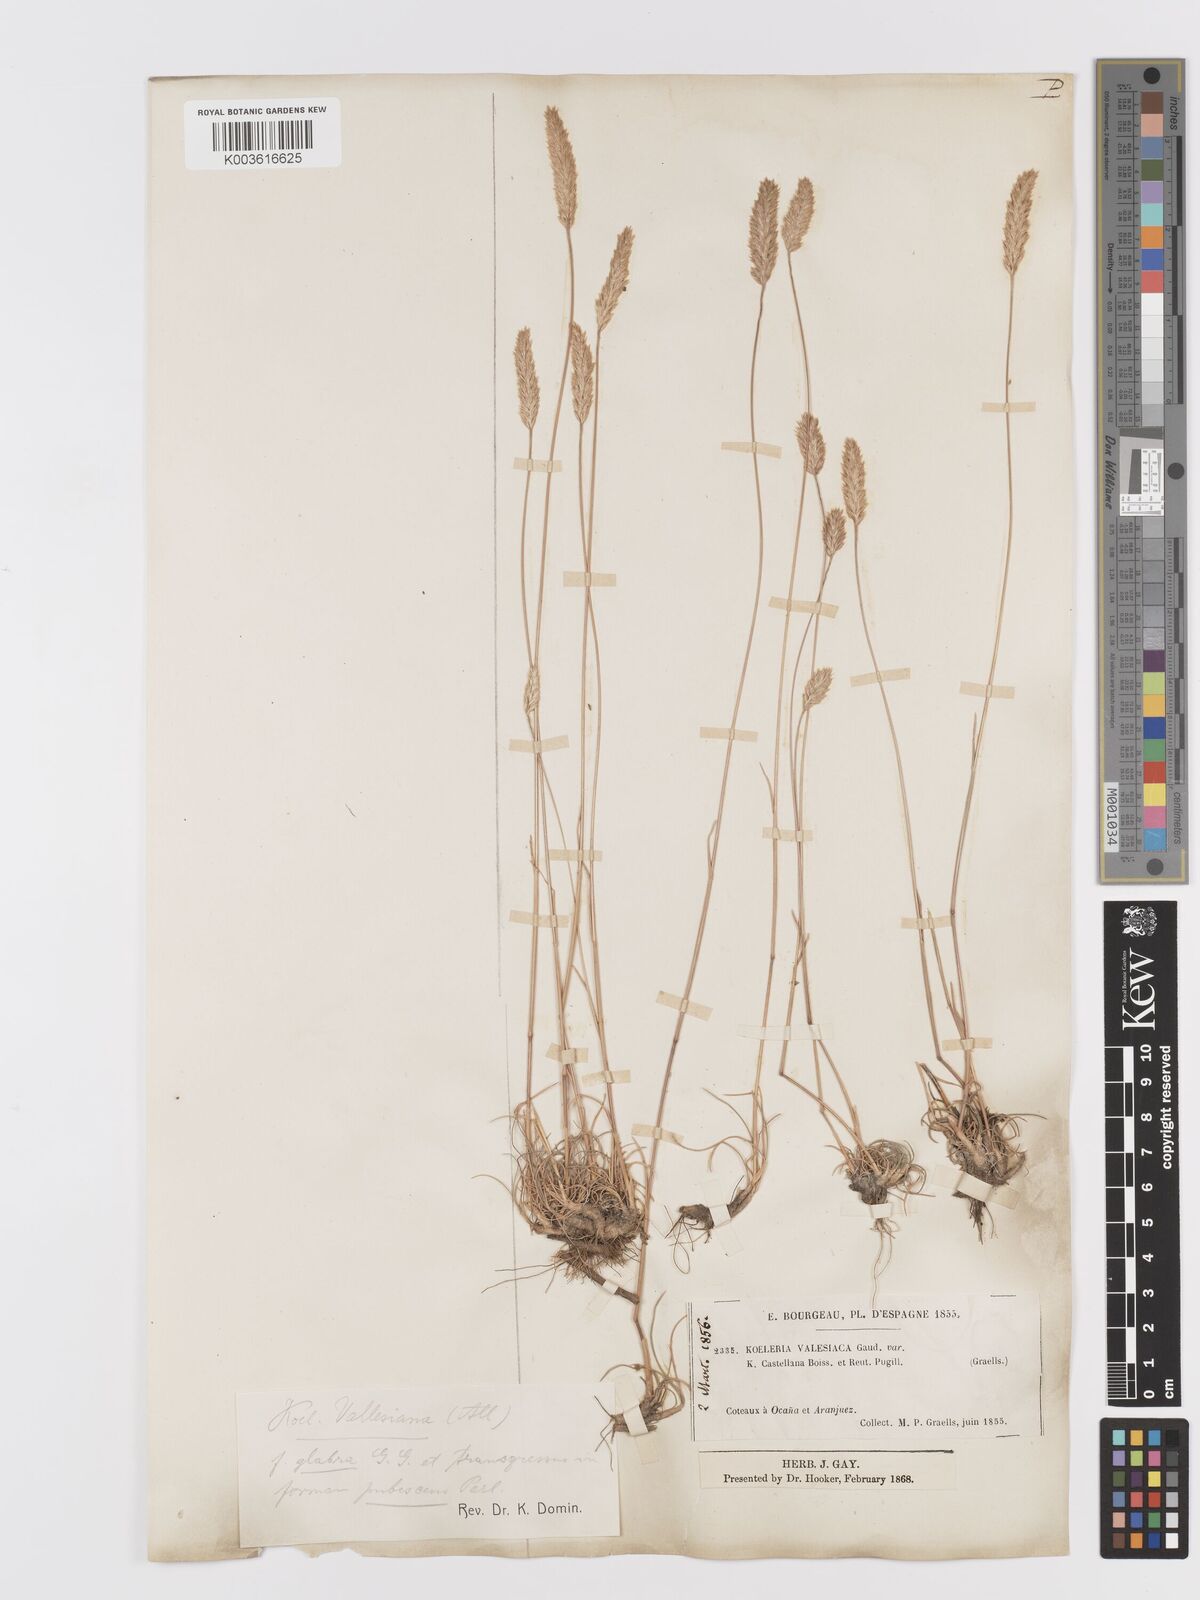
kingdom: Plantae
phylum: Tracheophyta
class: Liliopsida
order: Poales
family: Poaceae
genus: Koeleria
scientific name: Koeleria vallesiana
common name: Somerset hair-grass
